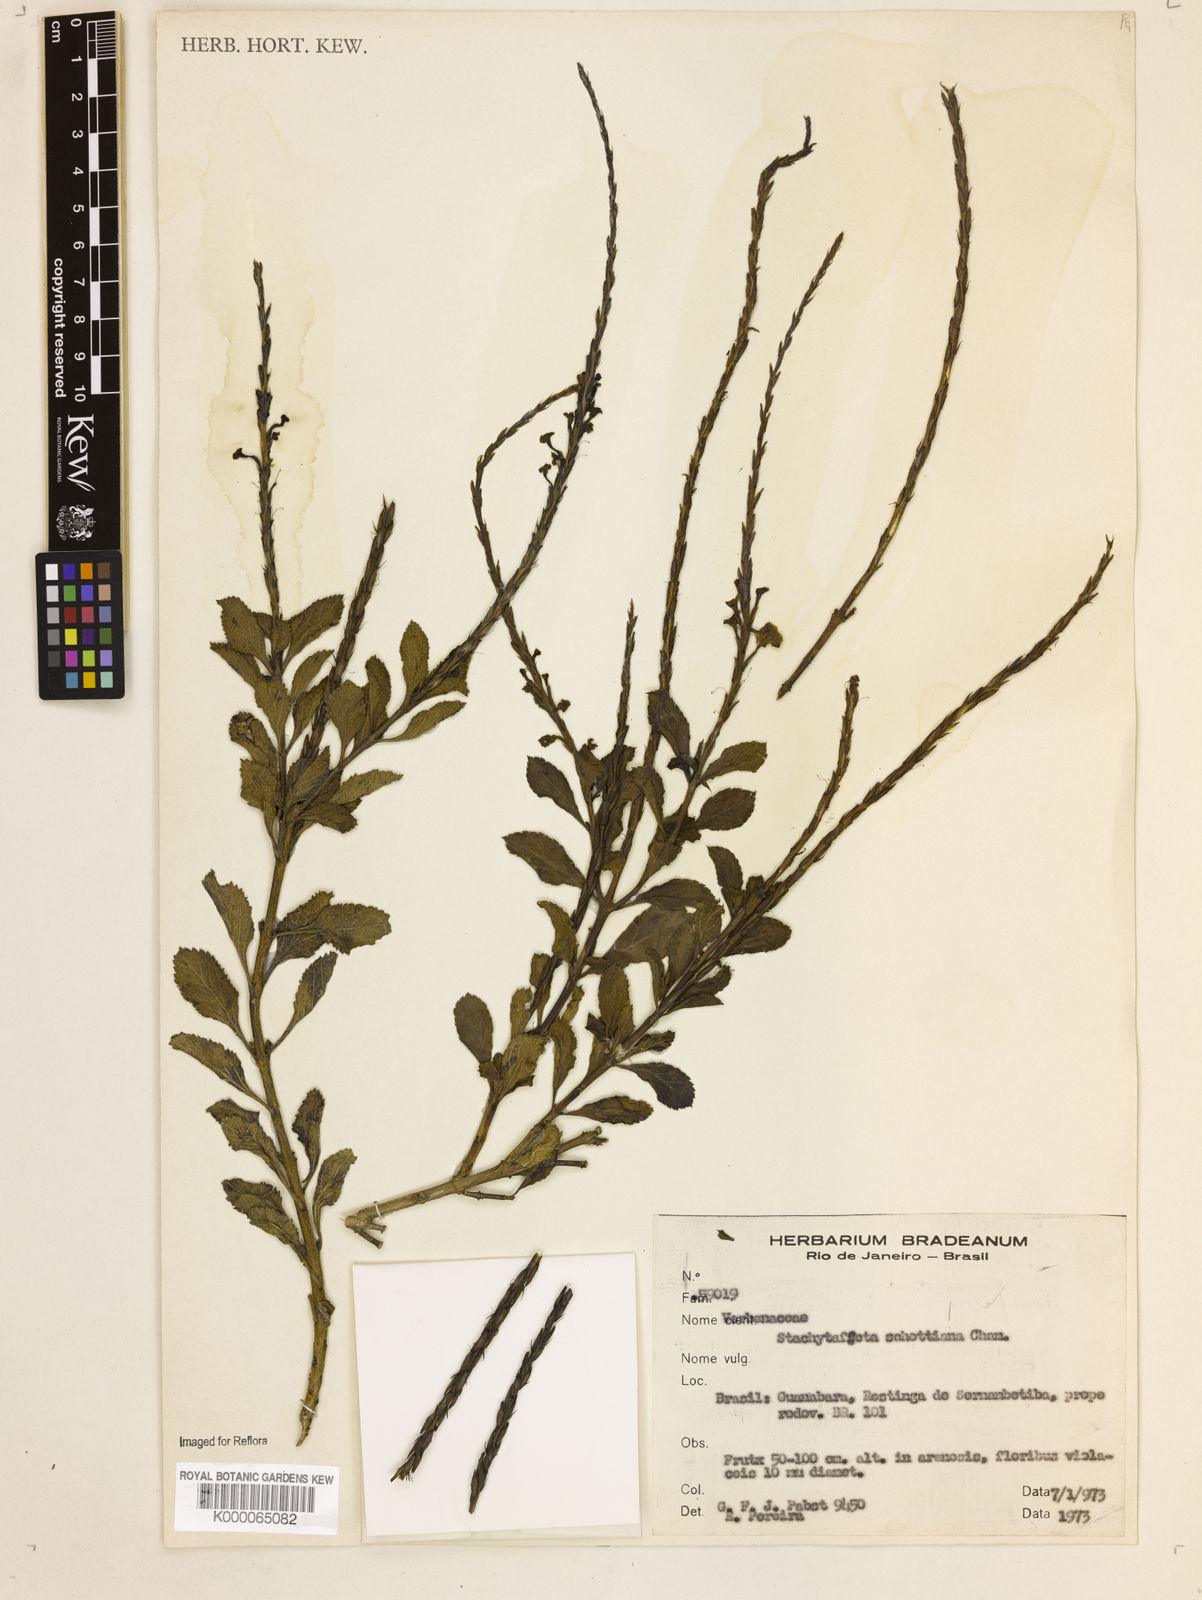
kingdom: Plantae
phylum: Tracheophyta
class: Magnoliopsida
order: Lamiales
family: Verbenaceae
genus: Stachytarpheta
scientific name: Stachytarpheta schottiana
